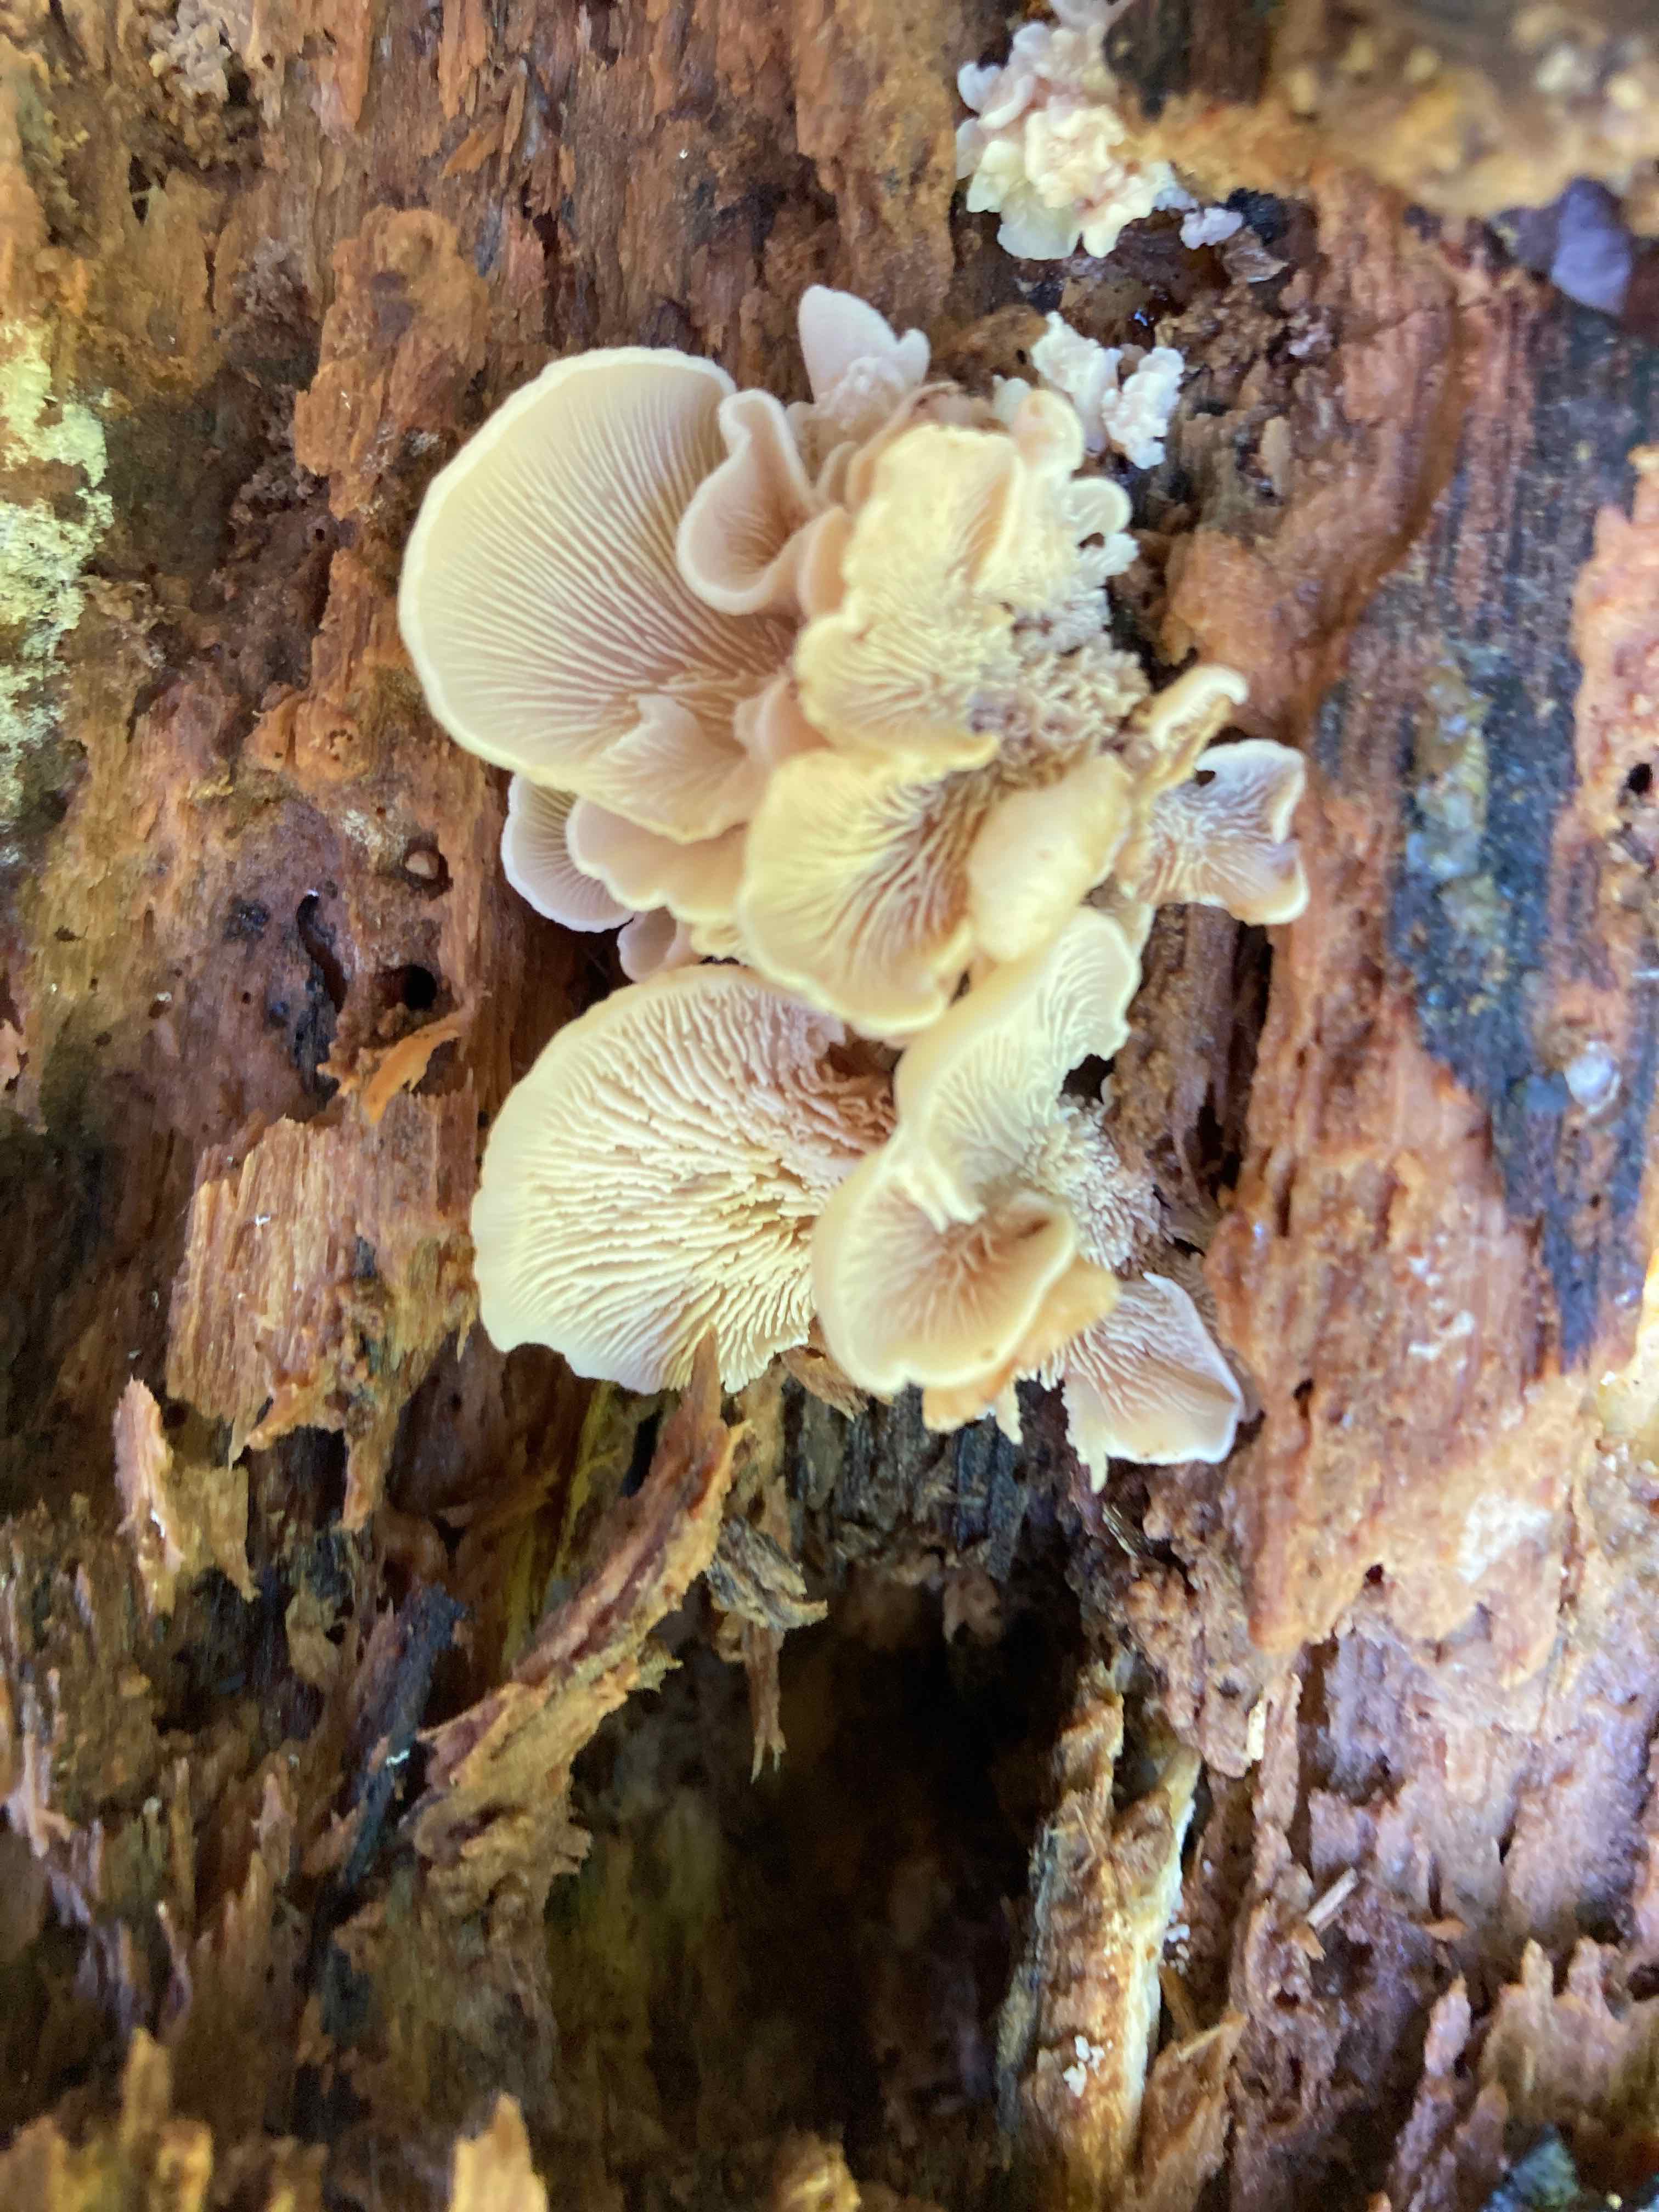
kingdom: Fungi
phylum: Basidiomycota
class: Agaricomycetes
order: Russulales
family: Auriscalpiaceae
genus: Lentinellus
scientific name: Lentinellus ursinus
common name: børstehåret savbladhat
